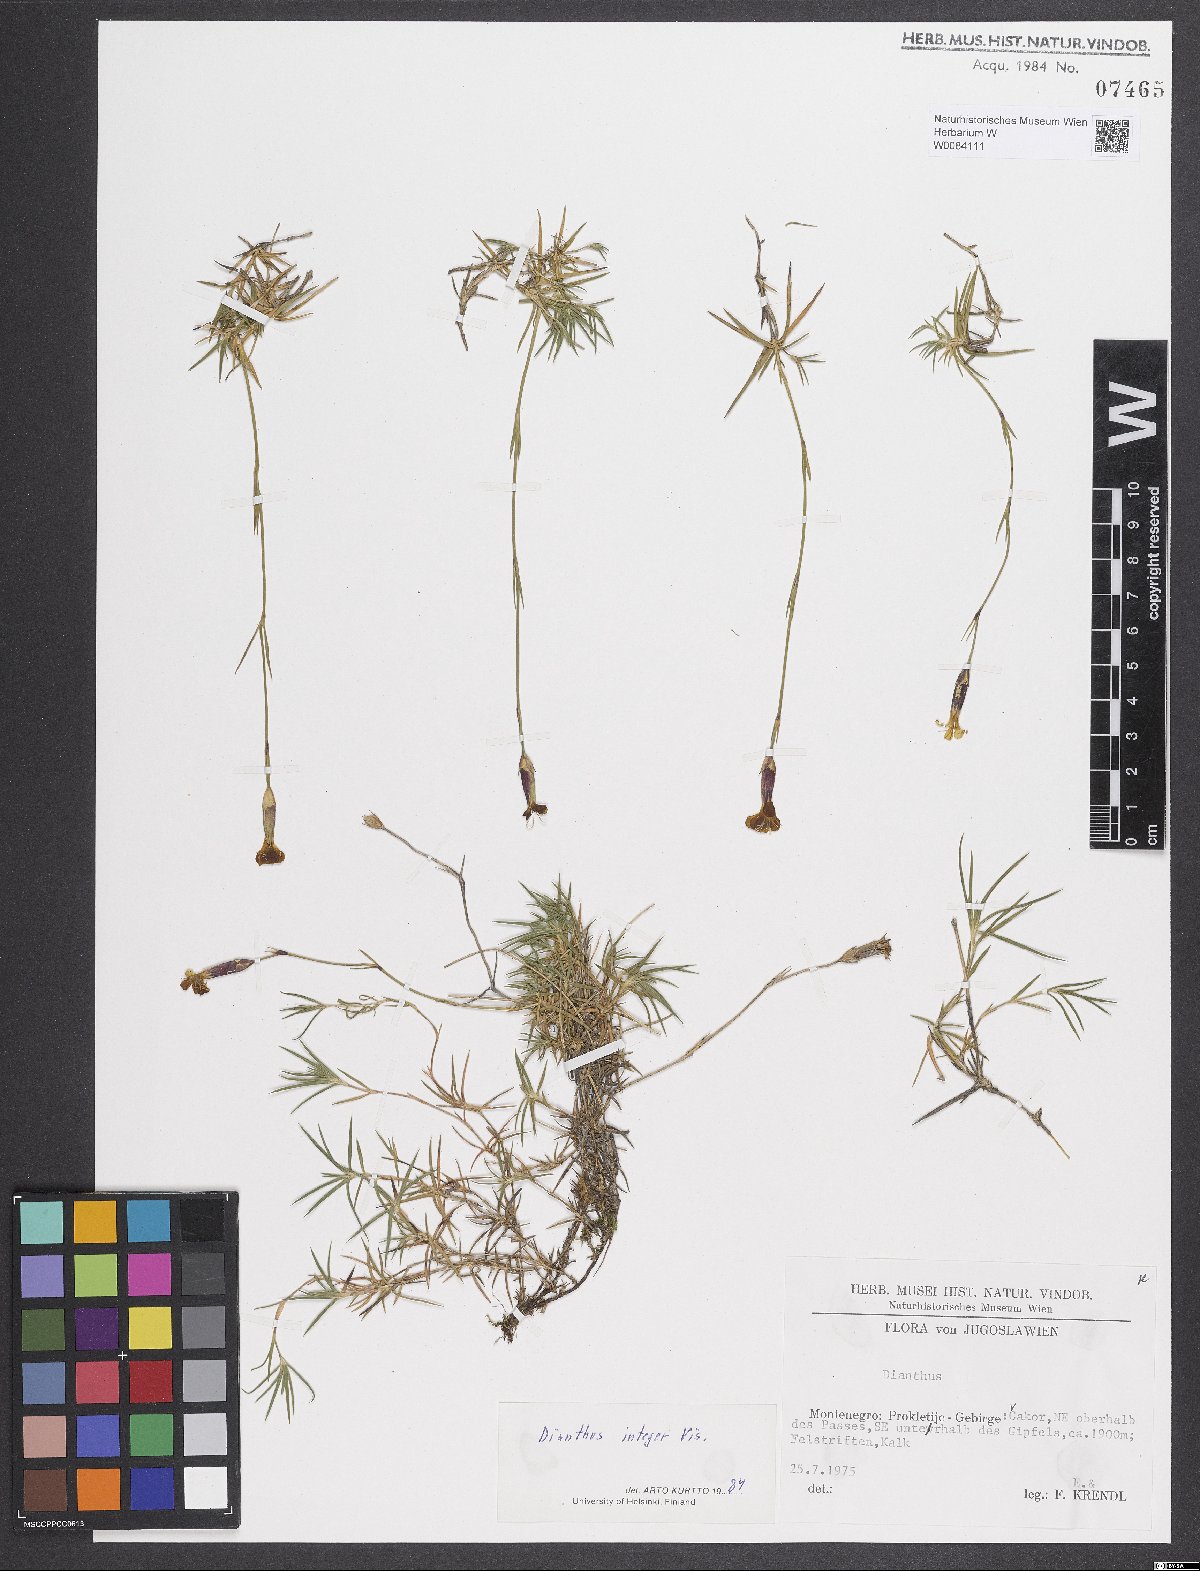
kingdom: Plantae
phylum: Tracheophyta
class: Magnoliopsida
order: Caryophyllales
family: Caryophyllaceae
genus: Dianthus
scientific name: Dianthus integer
